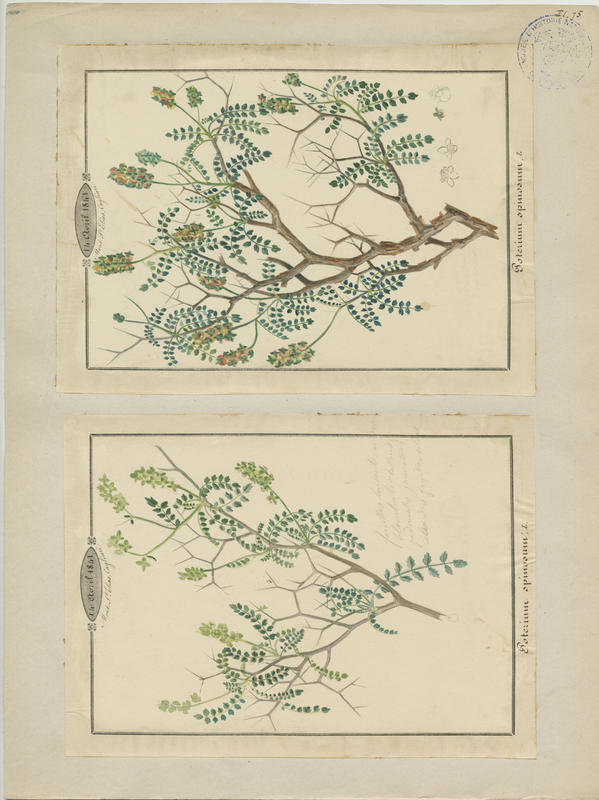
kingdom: Plantae
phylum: Tracheophyta
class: Magnoliopsida
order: Rosales
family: Rosaceae
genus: Sarcopoterium
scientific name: Sarcopoterium spinosum
